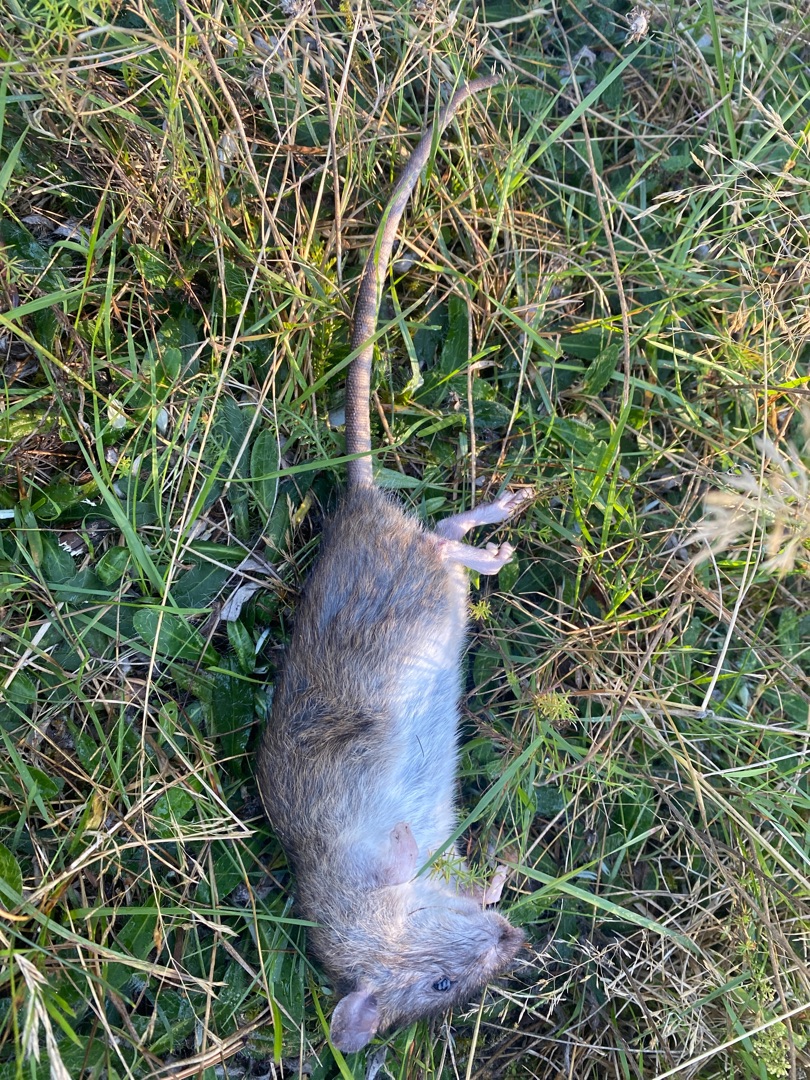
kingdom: Animalia
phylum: Chordata
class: Mammalia
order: Rodentia
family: Muridae
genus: Rattus
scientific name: Rattus norvegicus
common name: Brun rotte
